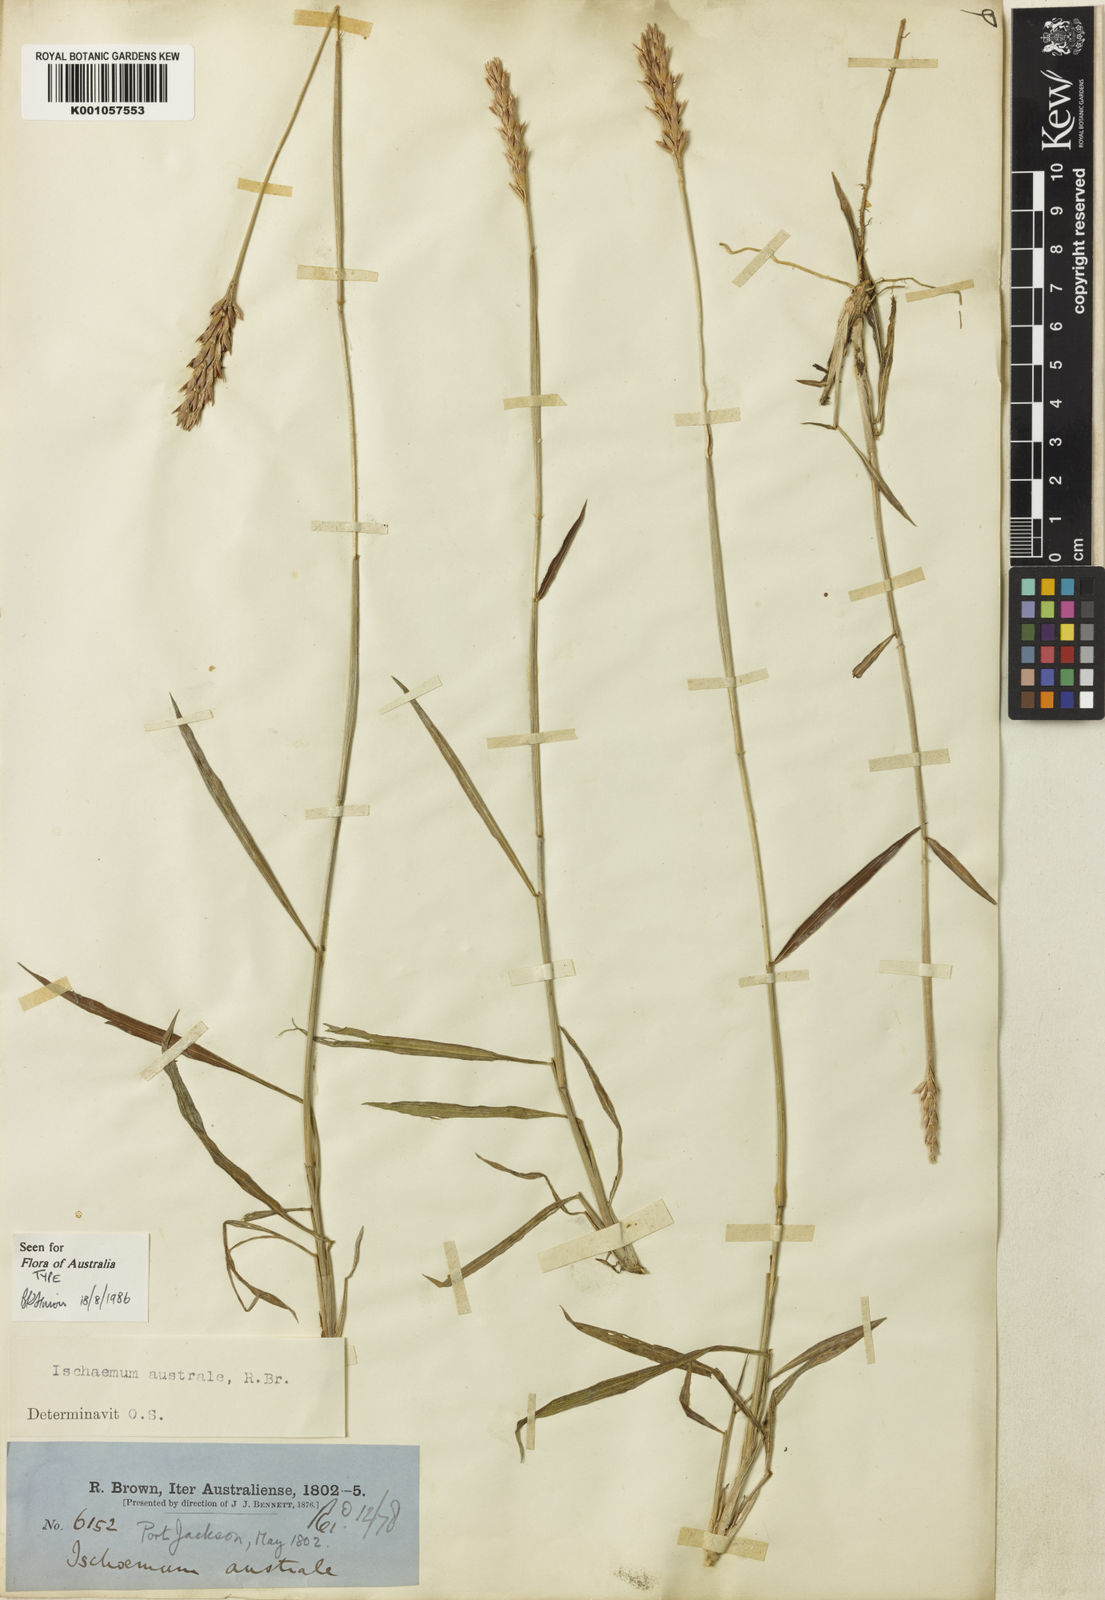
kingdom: Plantae
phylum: Tracheophyta
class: Liliopsida
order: Poales
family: Poaceae
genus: Ischaemum
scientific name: Ischaemum australe
